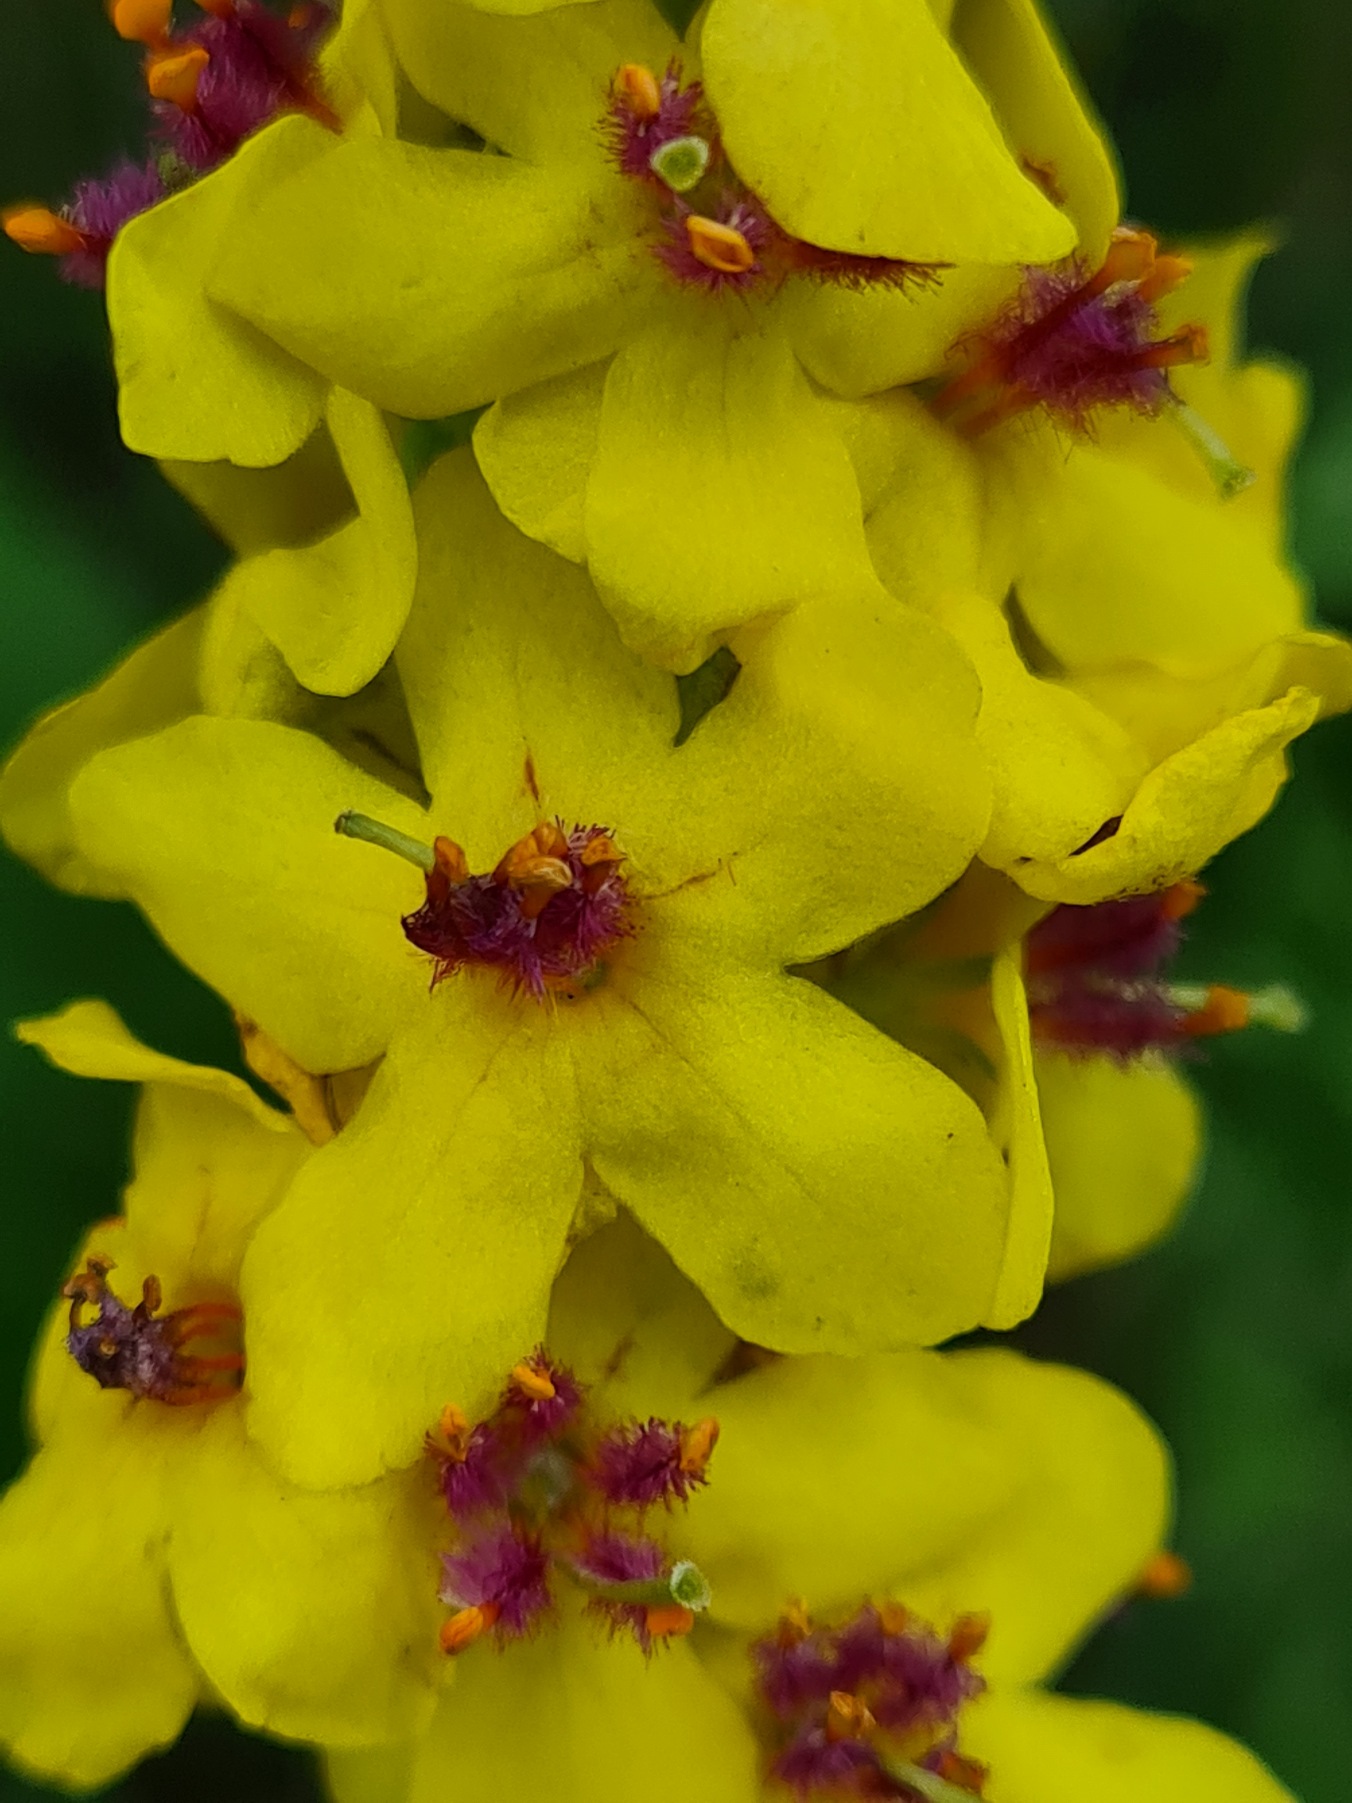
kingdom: Plantae
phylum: Tracheophyta
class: Magnoliopsida
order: Lamiales
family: Scrophulariaceae
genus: Verbascum
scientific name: Verbascum nigrum
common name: Mørk kongelys
